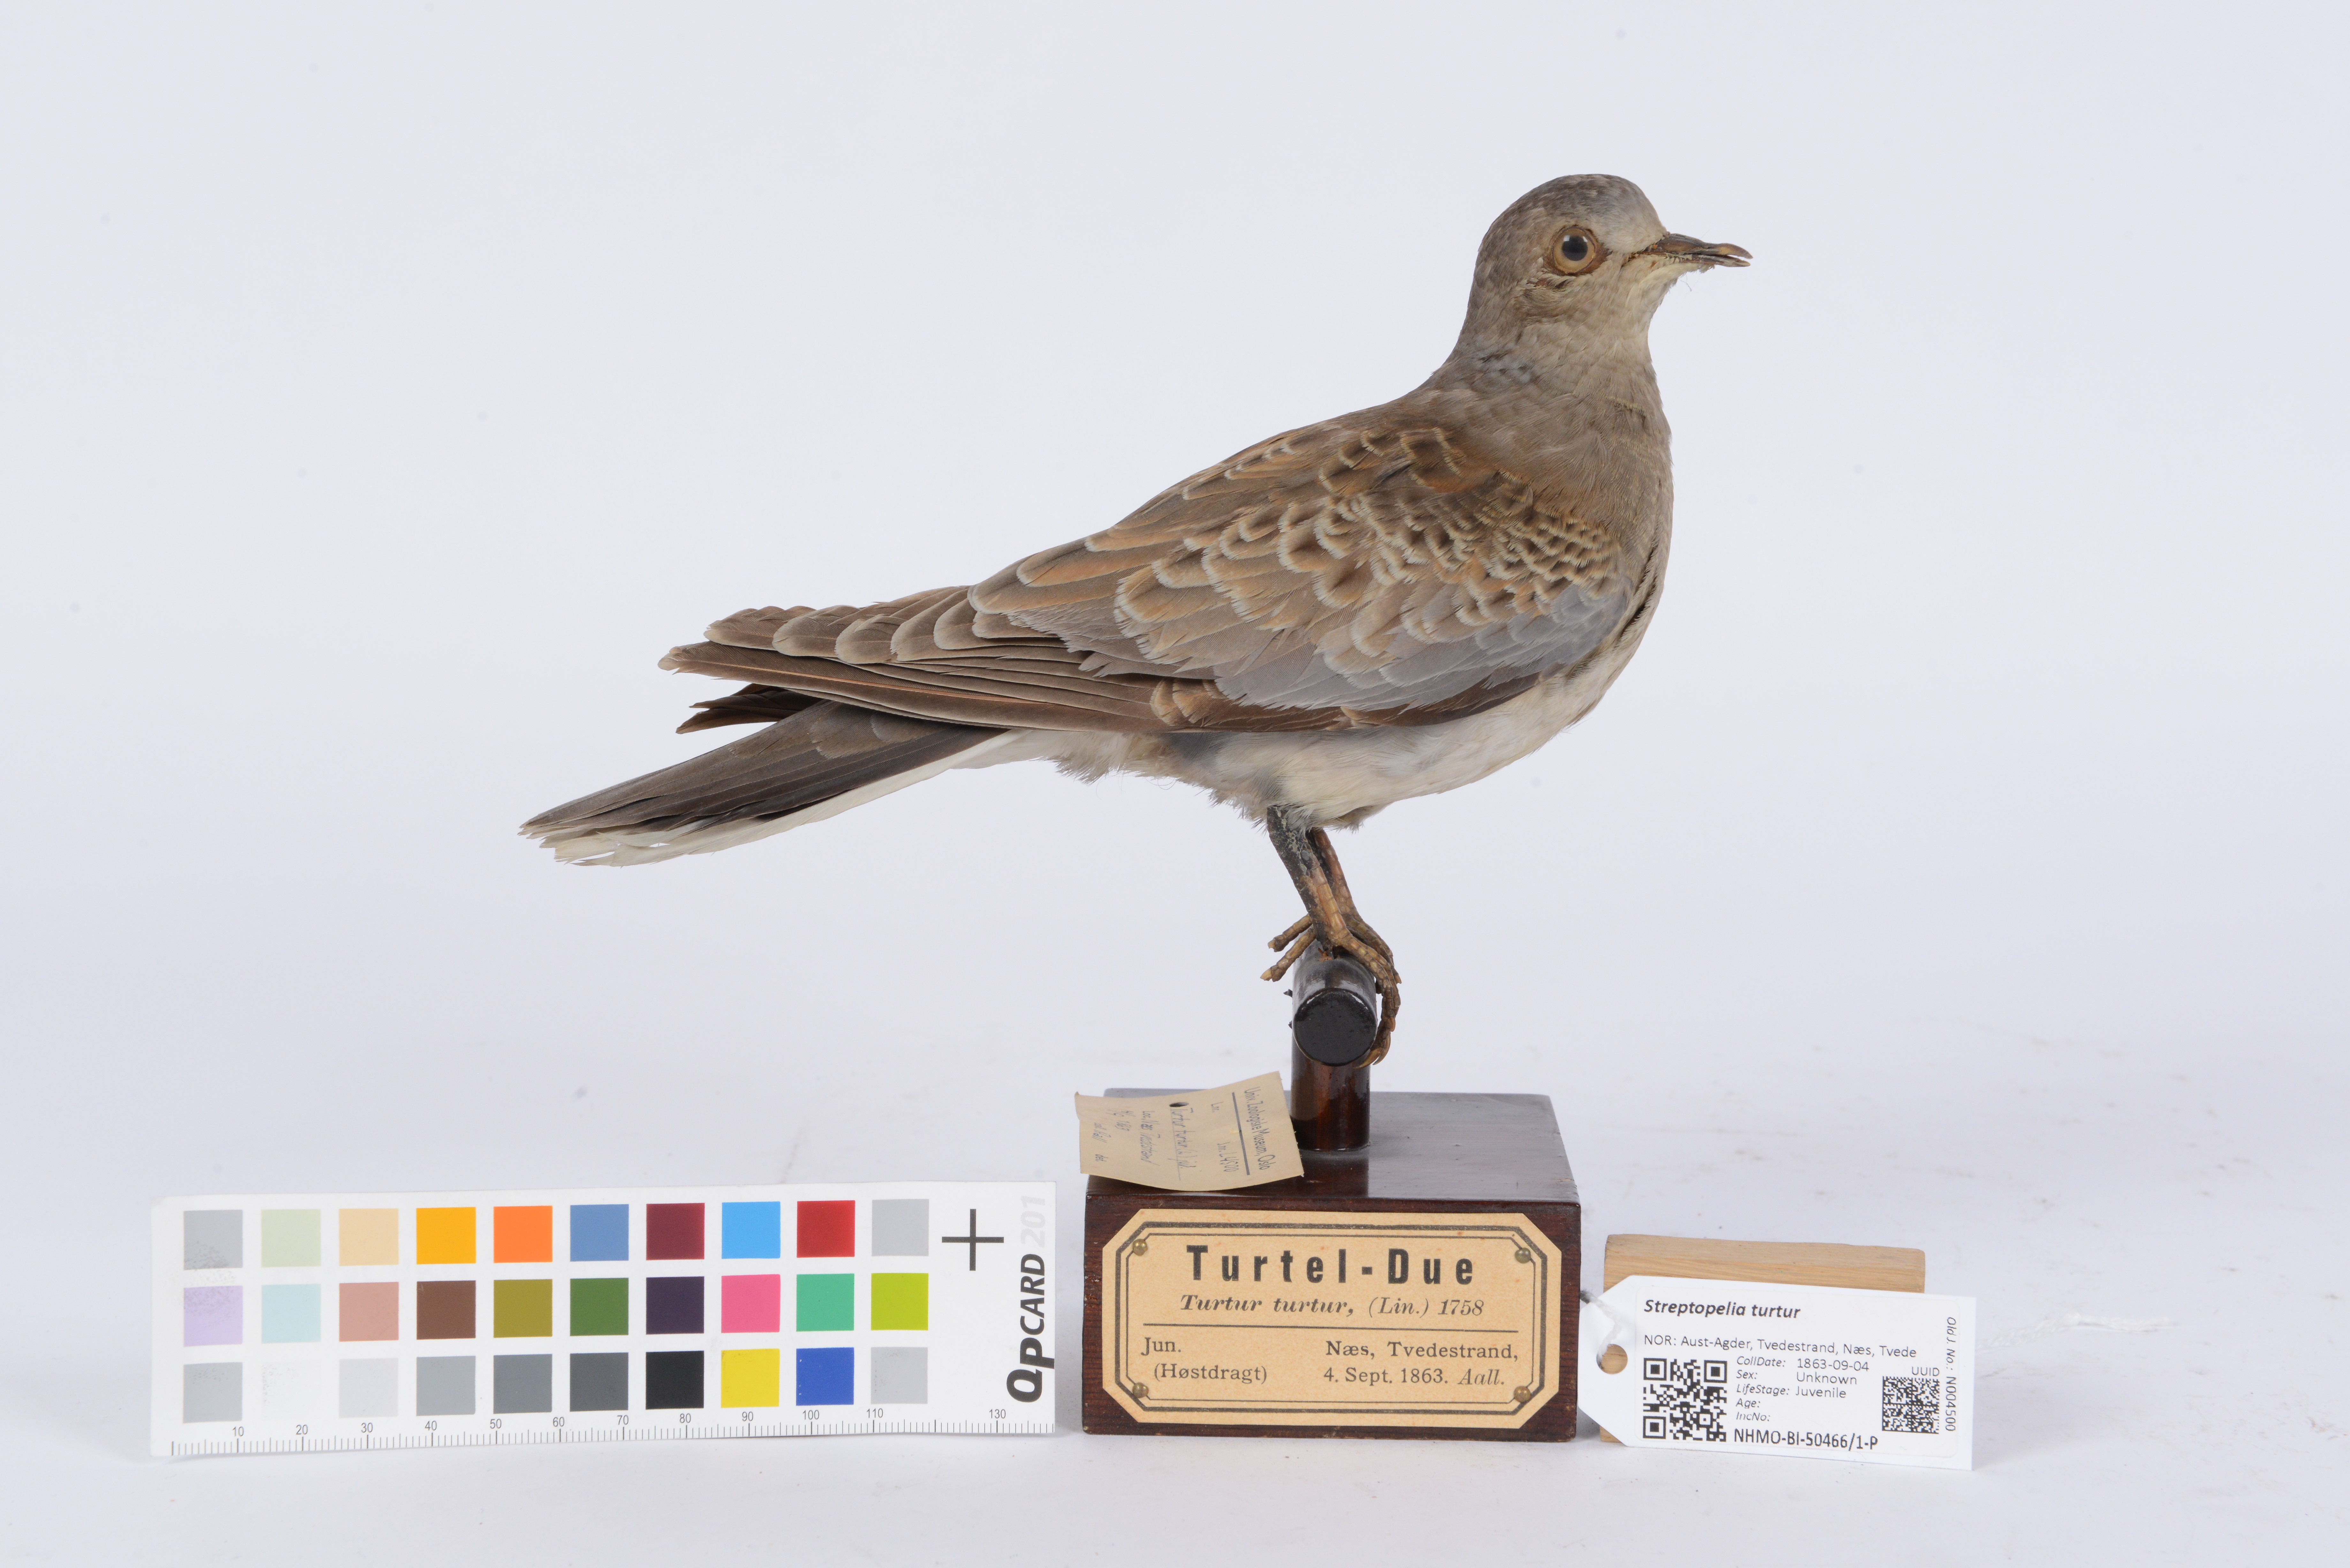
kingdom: Animalia
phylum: Chordata
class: Aves
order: Columbiformes
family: Columbidae
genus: Streptopelia
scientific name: Streptopelia turtur
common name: European turtle dove
